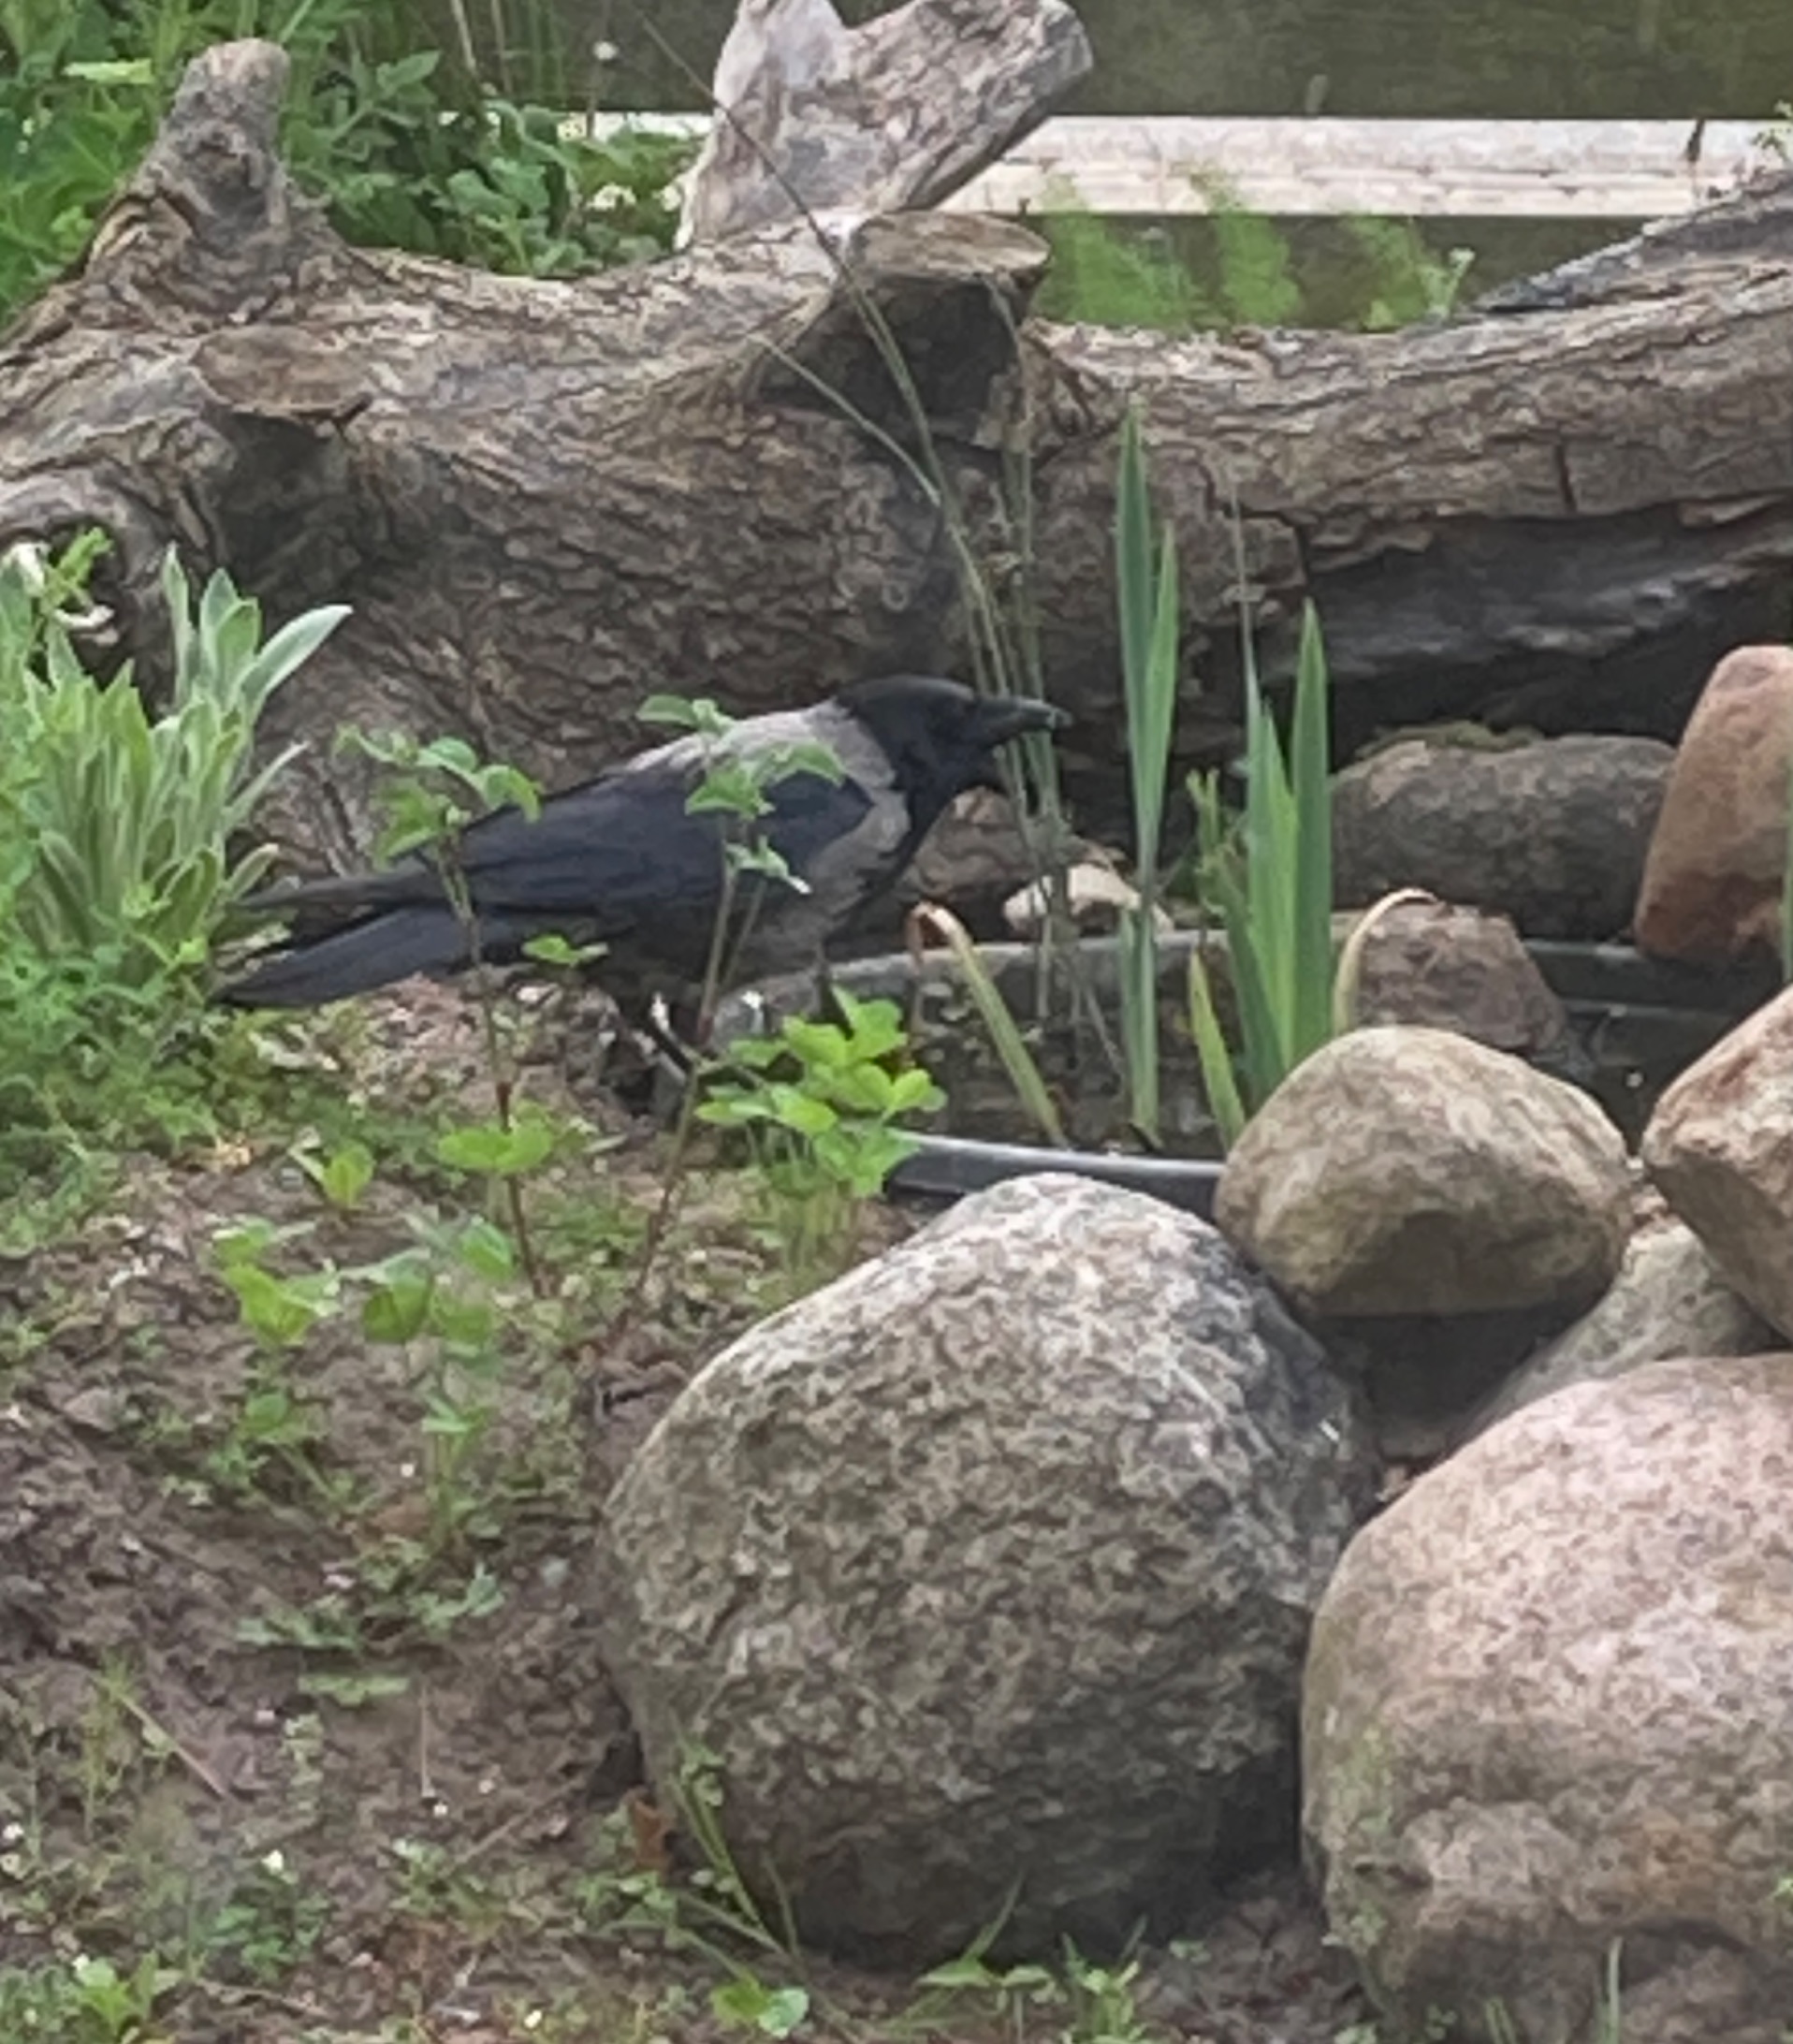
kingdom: Animalia
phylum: Chordata
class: Aves
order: Passeriformes
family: Corvidae
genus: Corvus
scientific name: Corvus cornix
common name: Gråkrage
